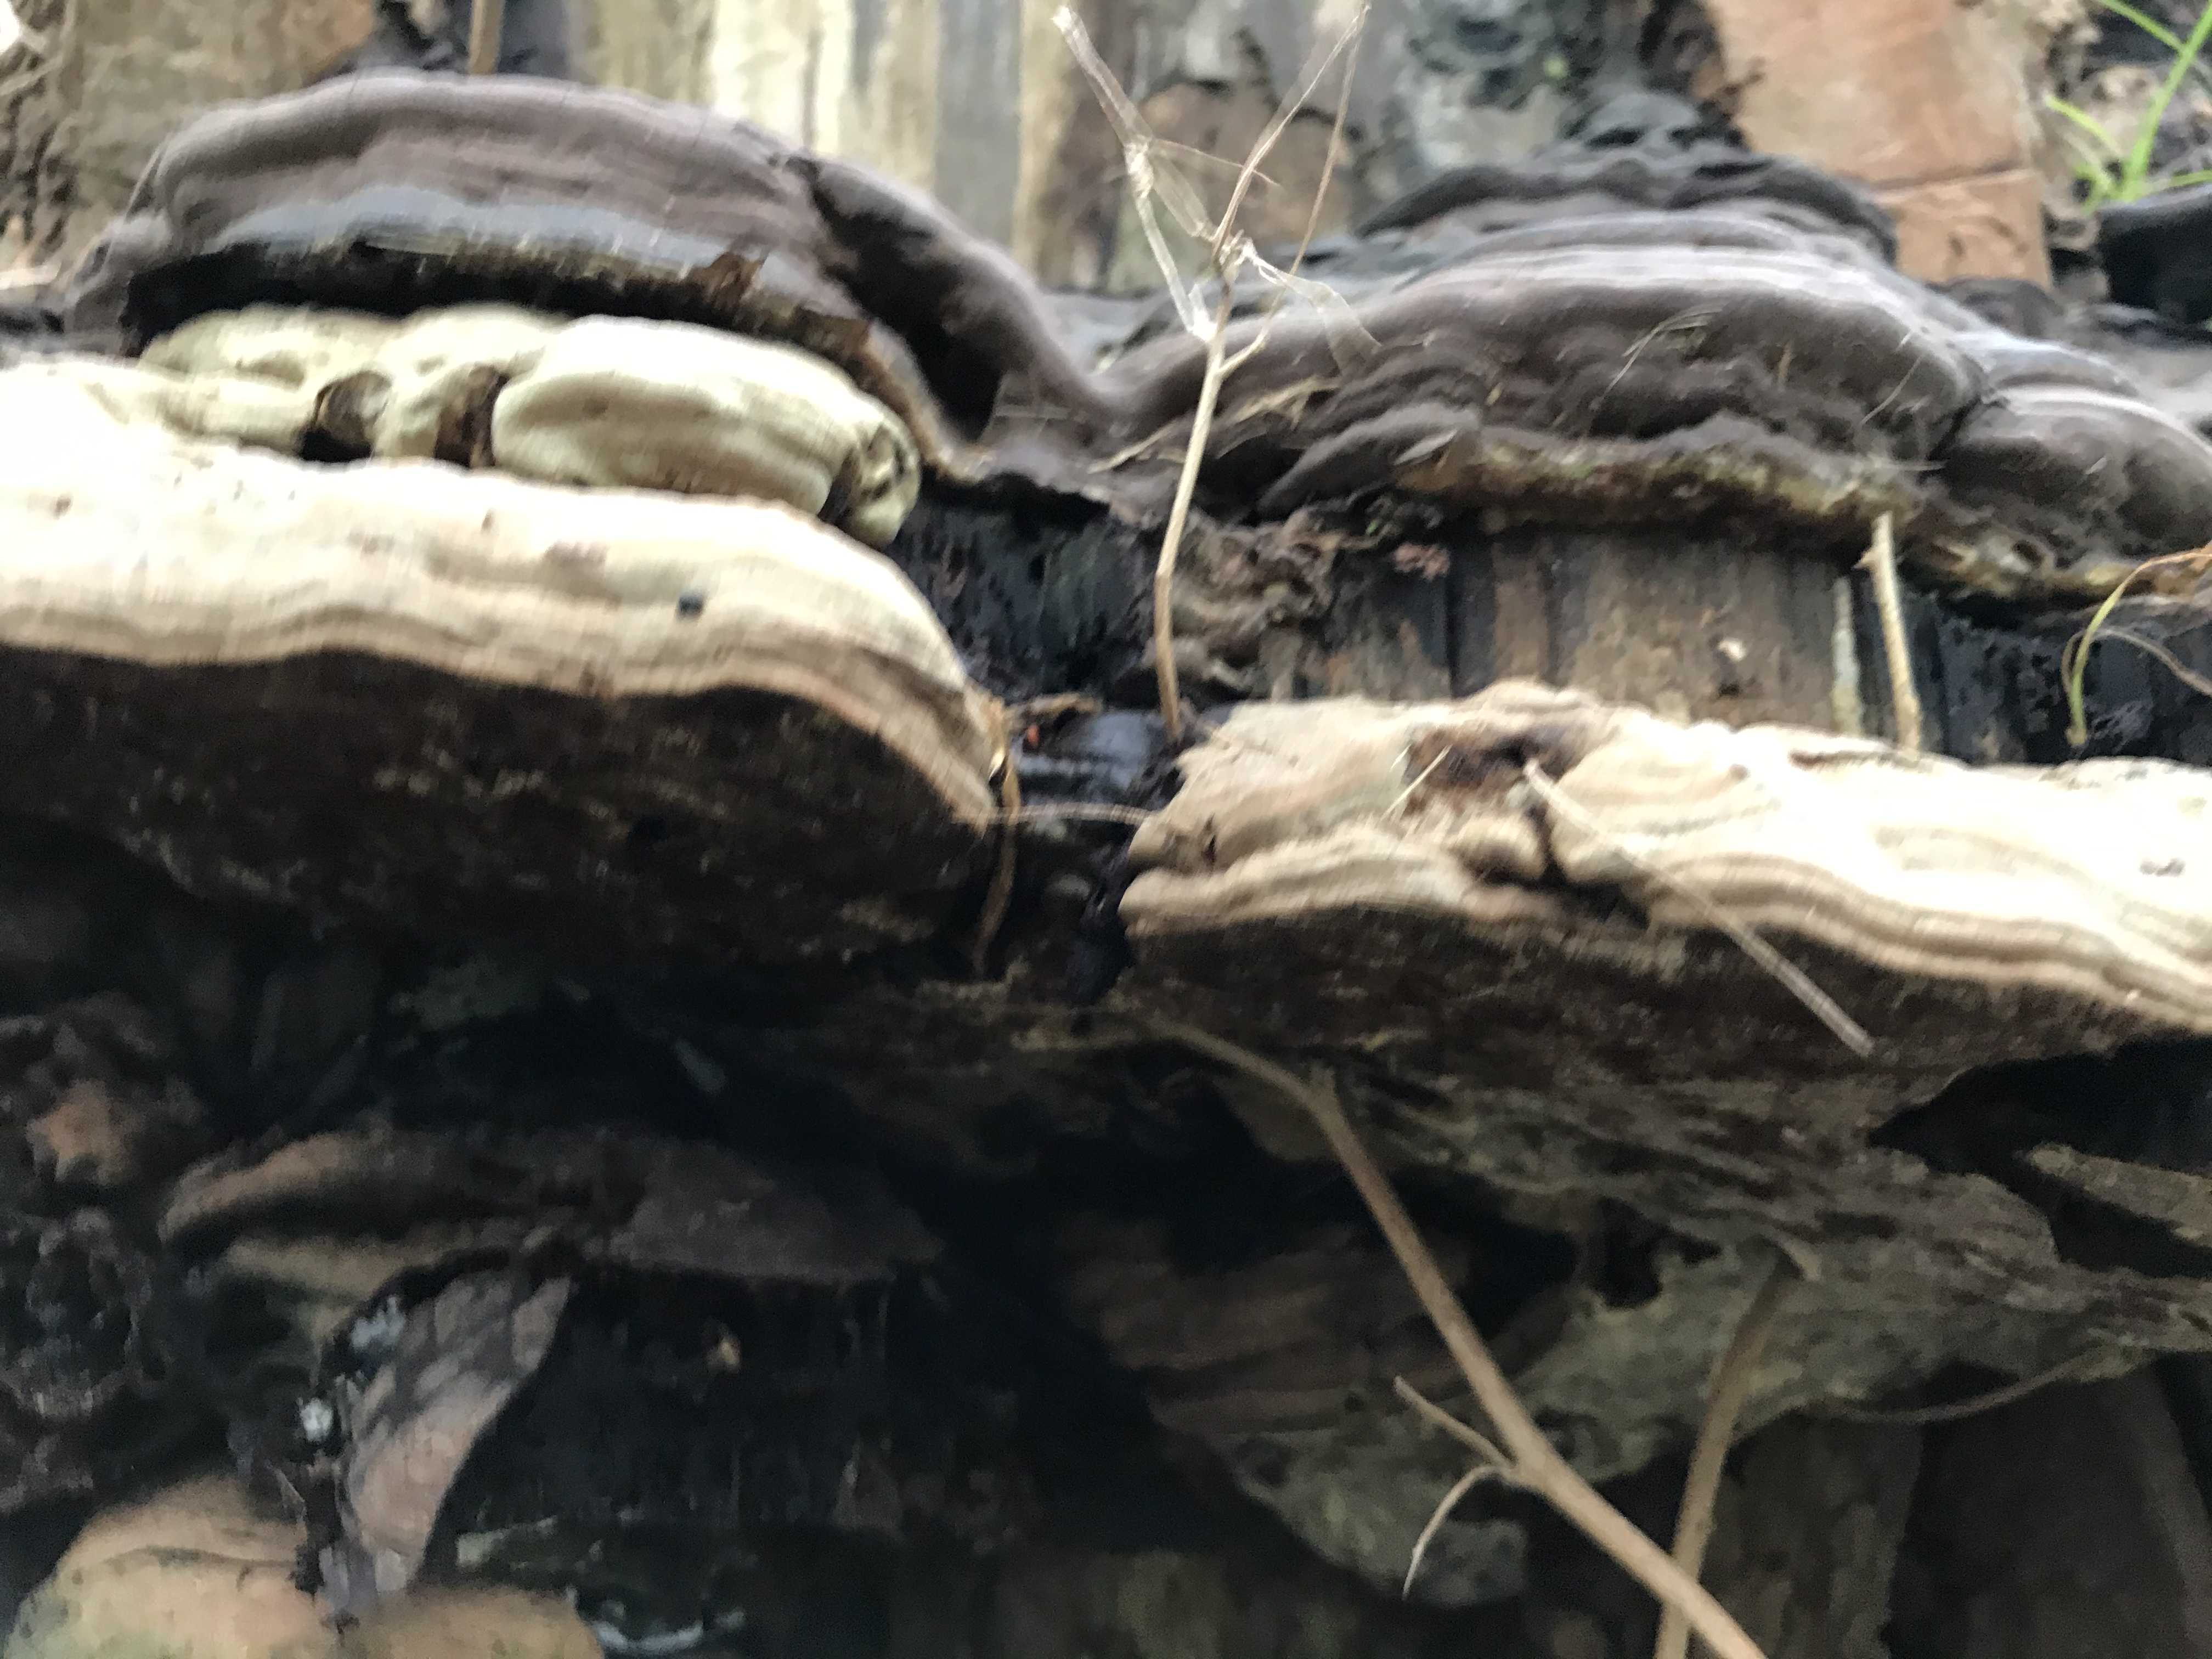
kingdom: Fungi
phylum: Basidiomycota
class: Agaricomycetes
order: Polyporales
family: Polyporaceae
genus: Ganoderma
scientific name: Ganoderma applanatum
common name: flad lakporesvamp
